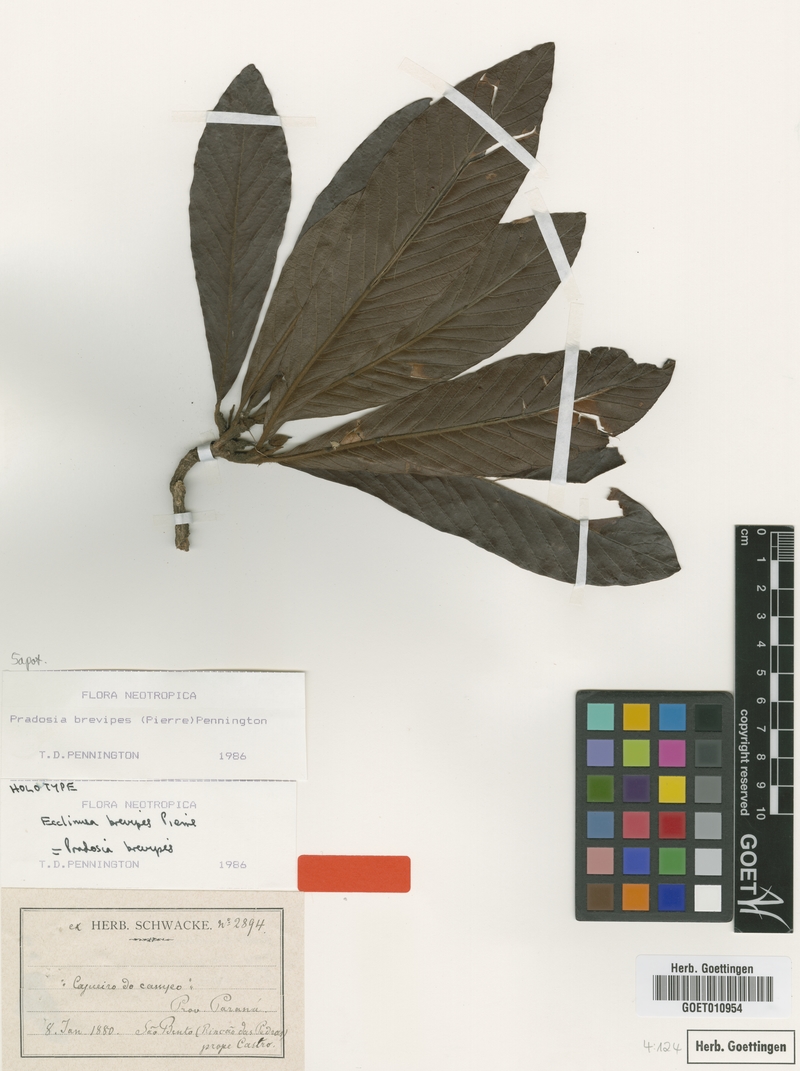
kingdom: Plantae
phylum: Tracheophyta
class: Magnoliopsida
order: Ericales
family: Sapotaceae
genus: Pradosia
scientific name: Pradosia brevipes
